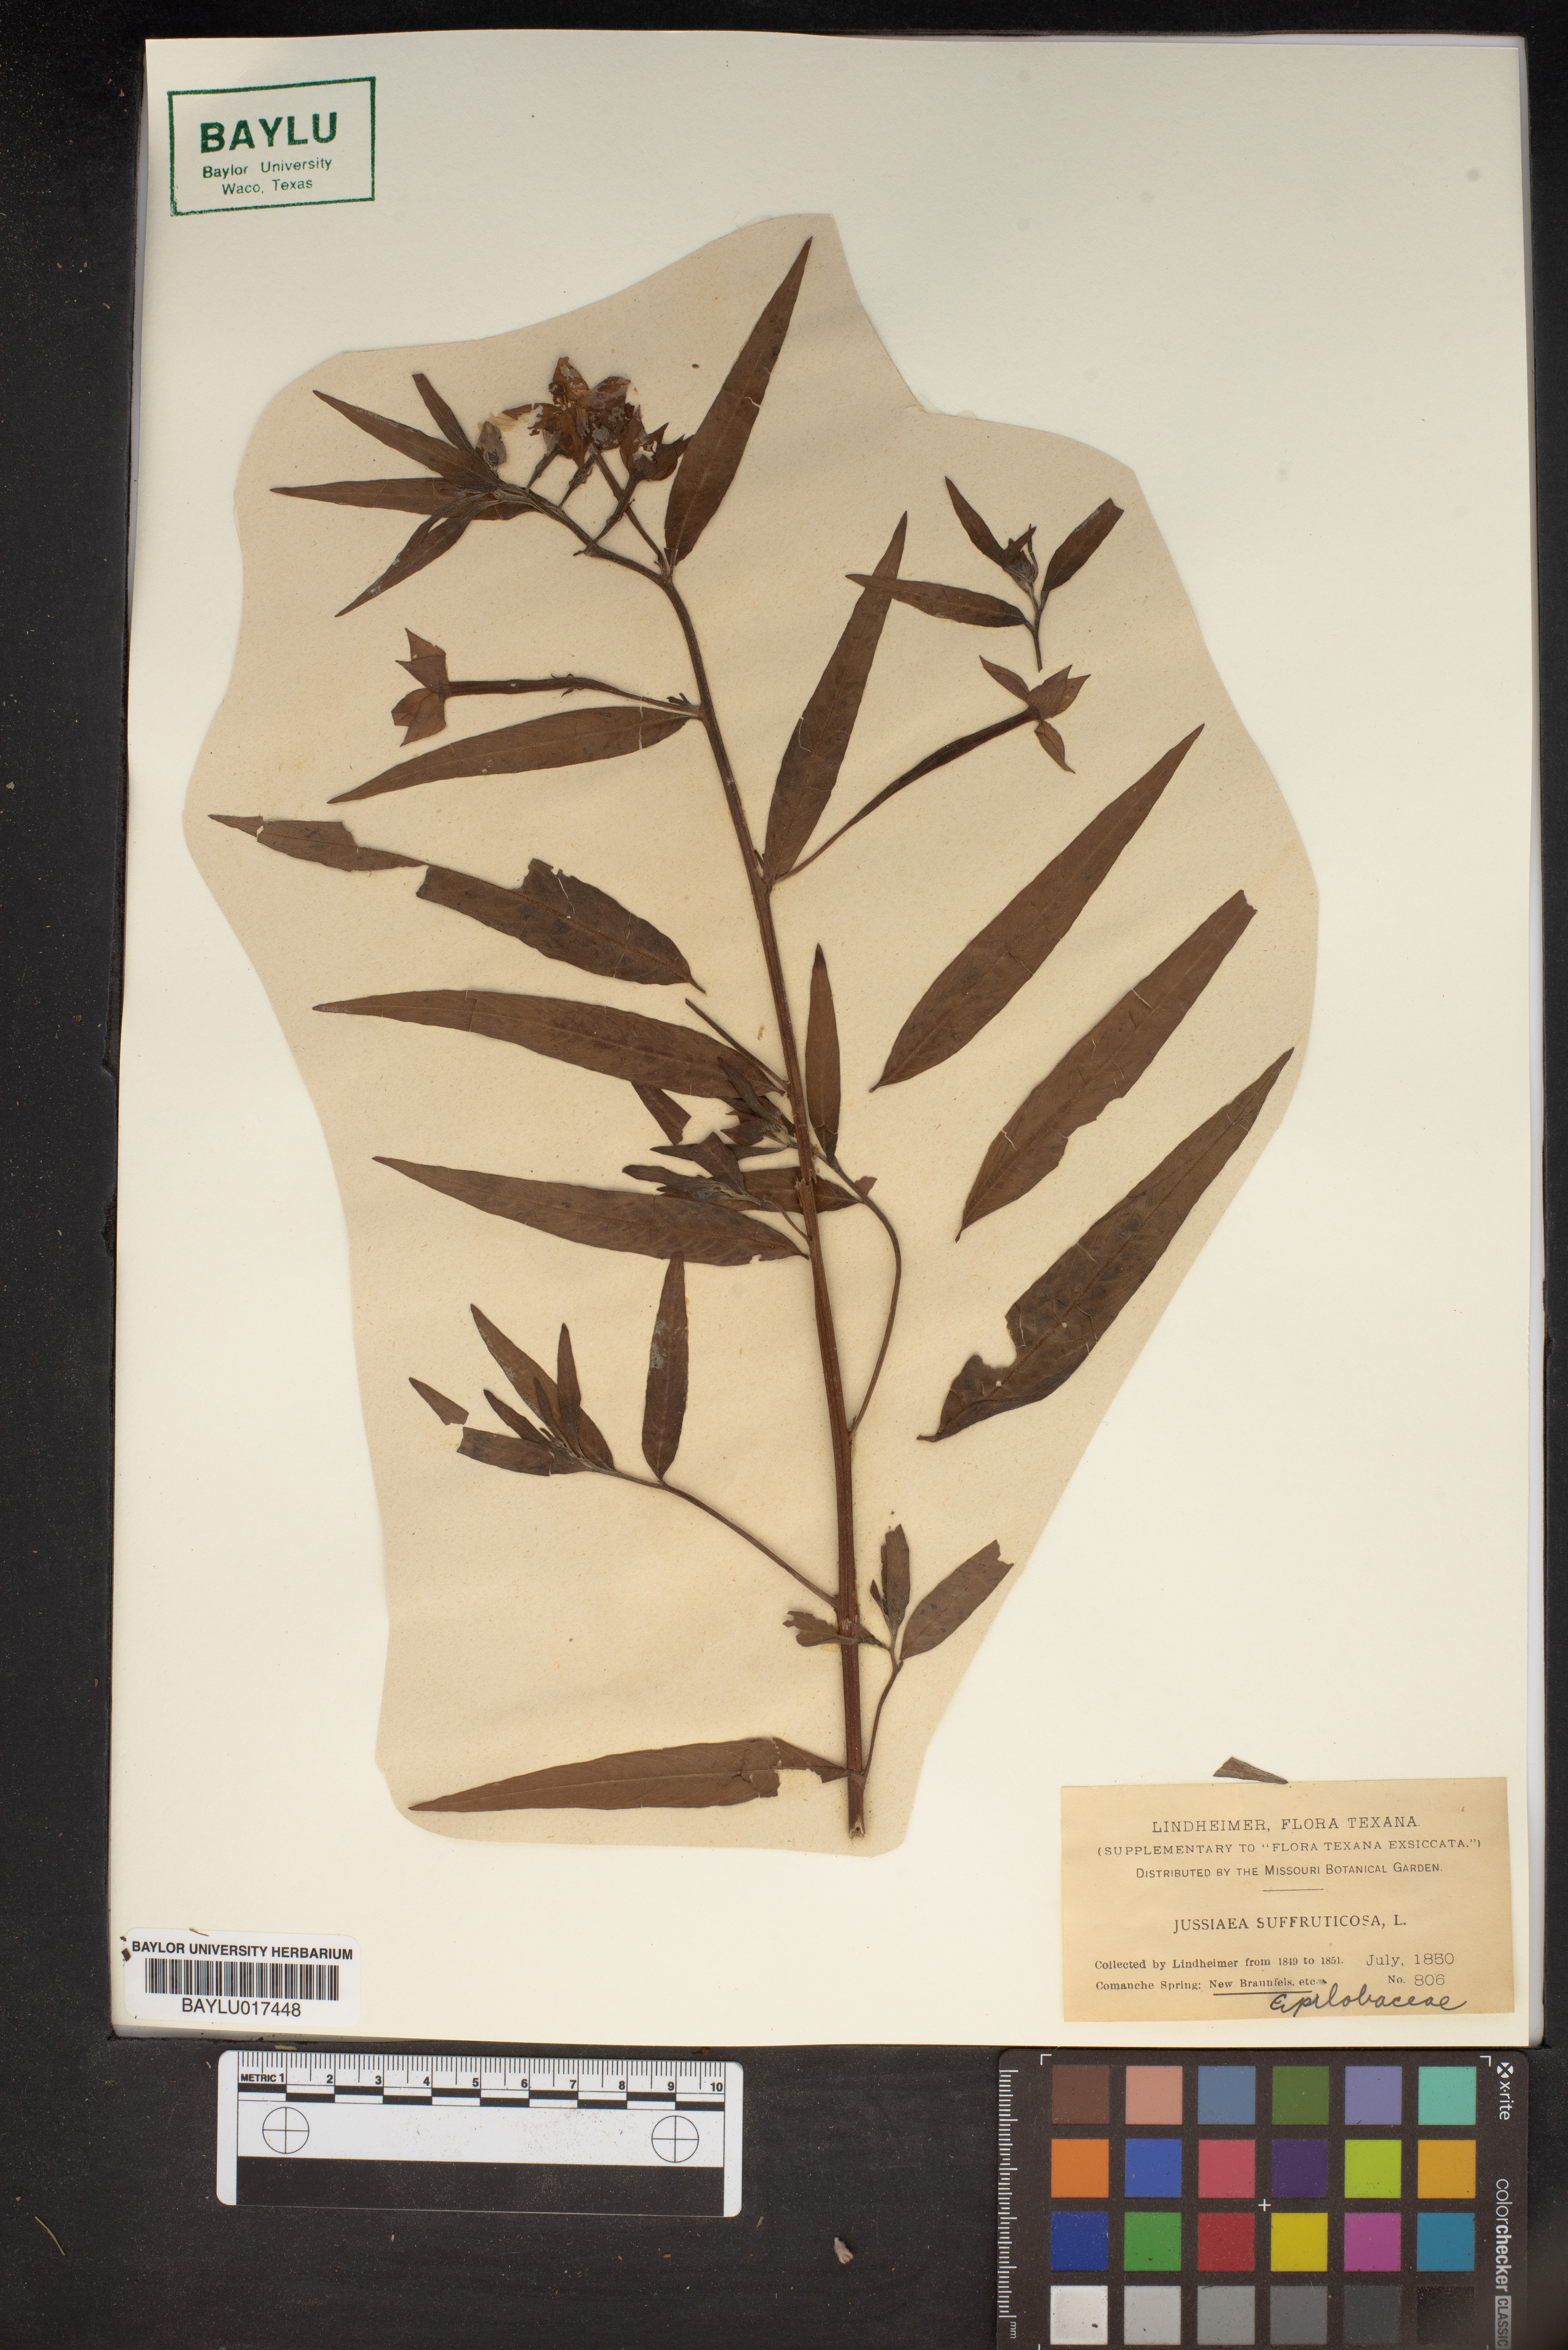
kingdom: Plantae
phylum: Tracheophyta
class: Magnoliopsida
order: Myrtales
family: Onagraceae
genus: Ludwigia
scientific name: Ludwigia octovalvis
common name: Water-primrose
